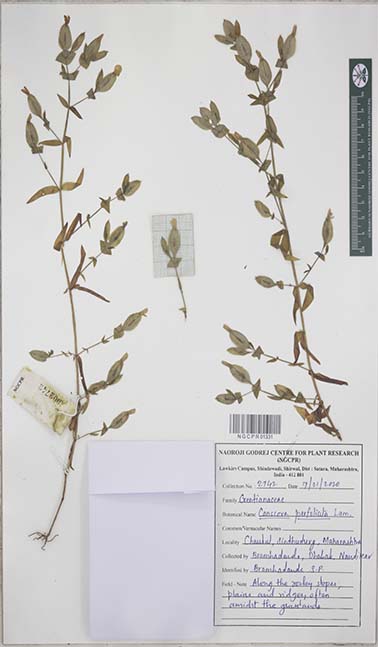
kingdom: Plantae
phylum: Tracheophyta
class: Magnoliopsida
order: Gentianales
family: Gentianaceae
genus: Canscora
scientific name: Canscora perfoliata
